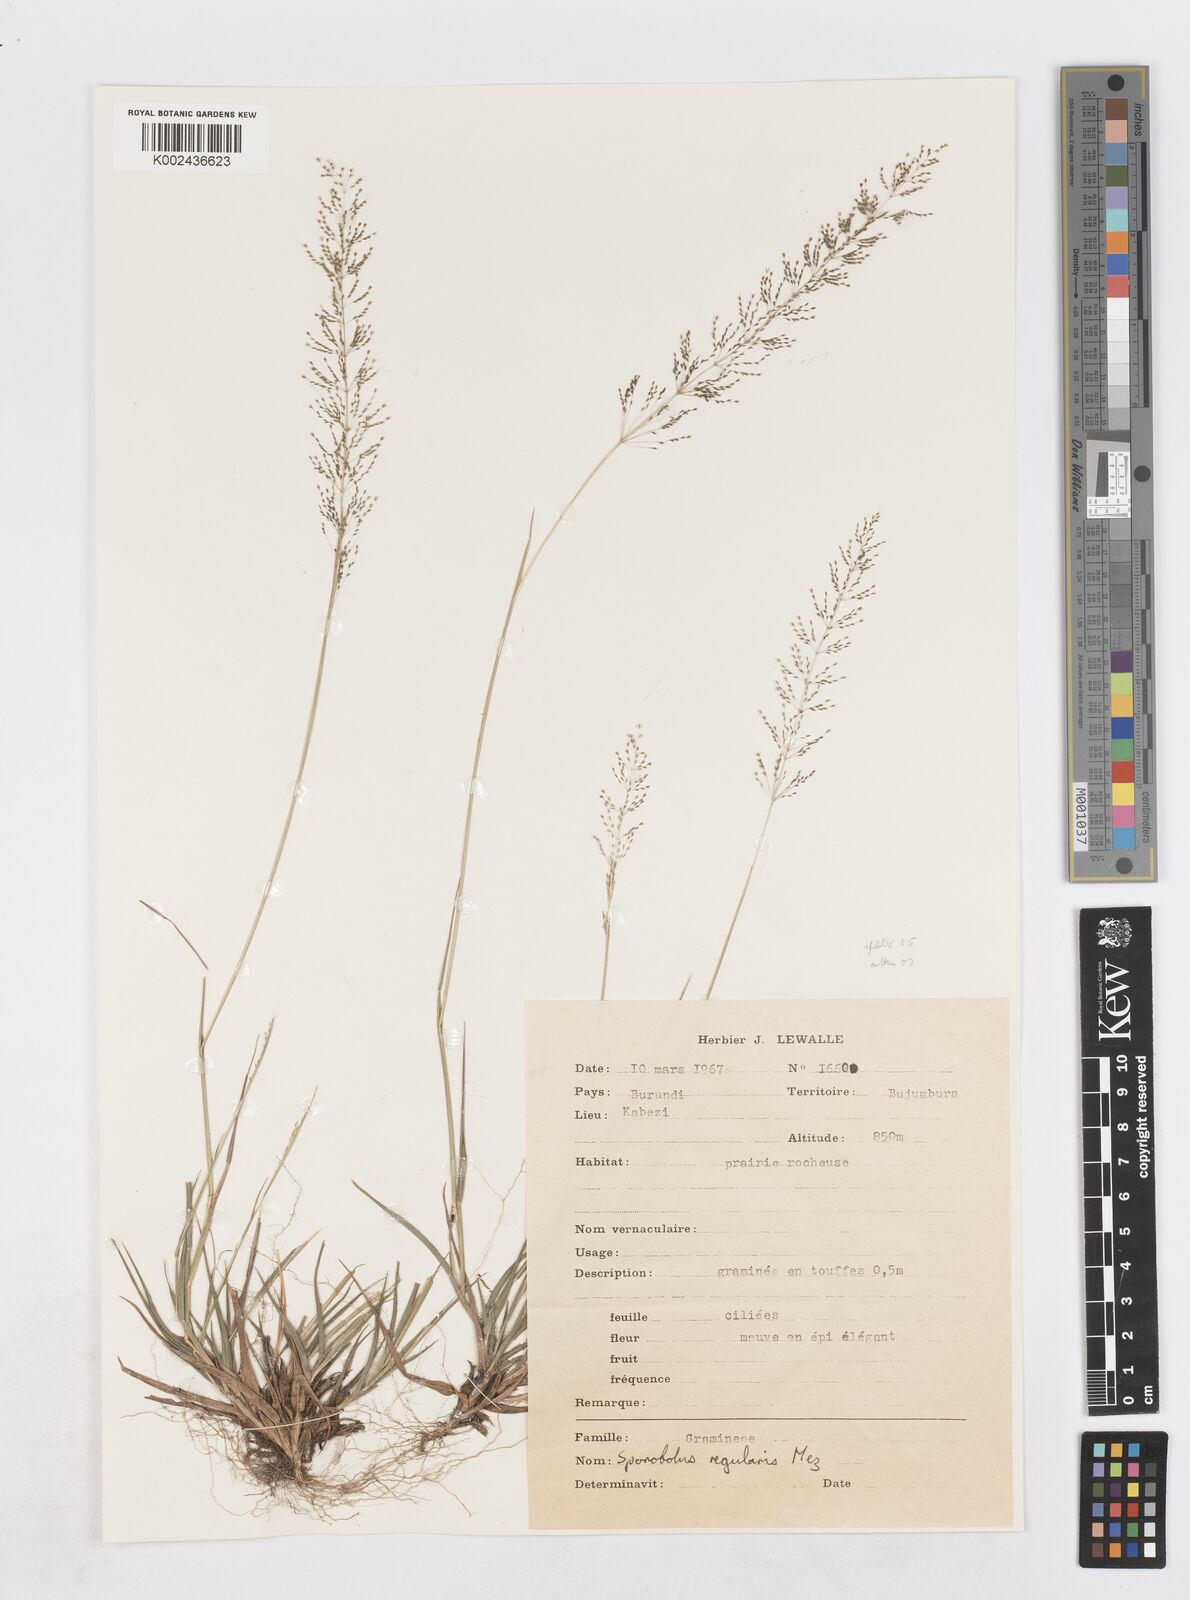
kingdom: Plantae
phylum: Tracheophyta
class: Liliopsida
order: Poales
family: Poaceae
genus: Sporobolus
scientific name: Sporobolus paniculatus
